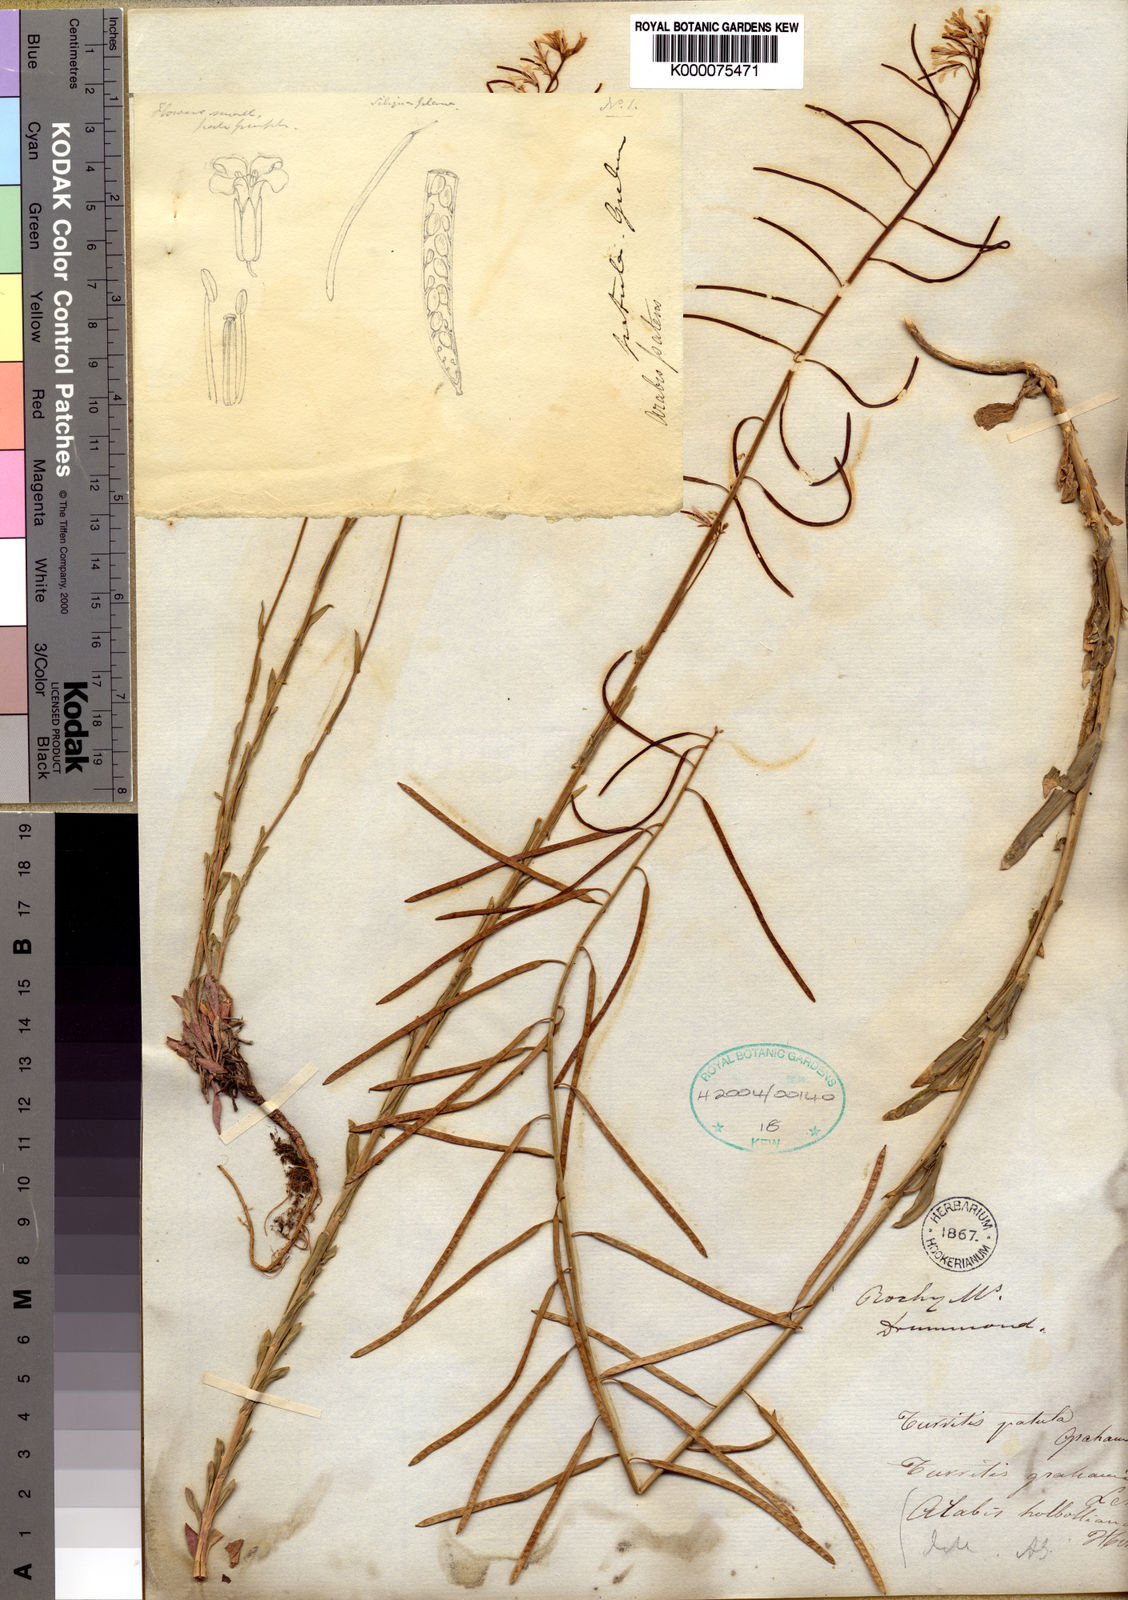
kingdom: Plantae
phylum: Tracheophyta
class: Magnoliopsida
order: Brassicales
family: Brassicaceae
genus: Boechera
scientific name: Boechera fendleri
